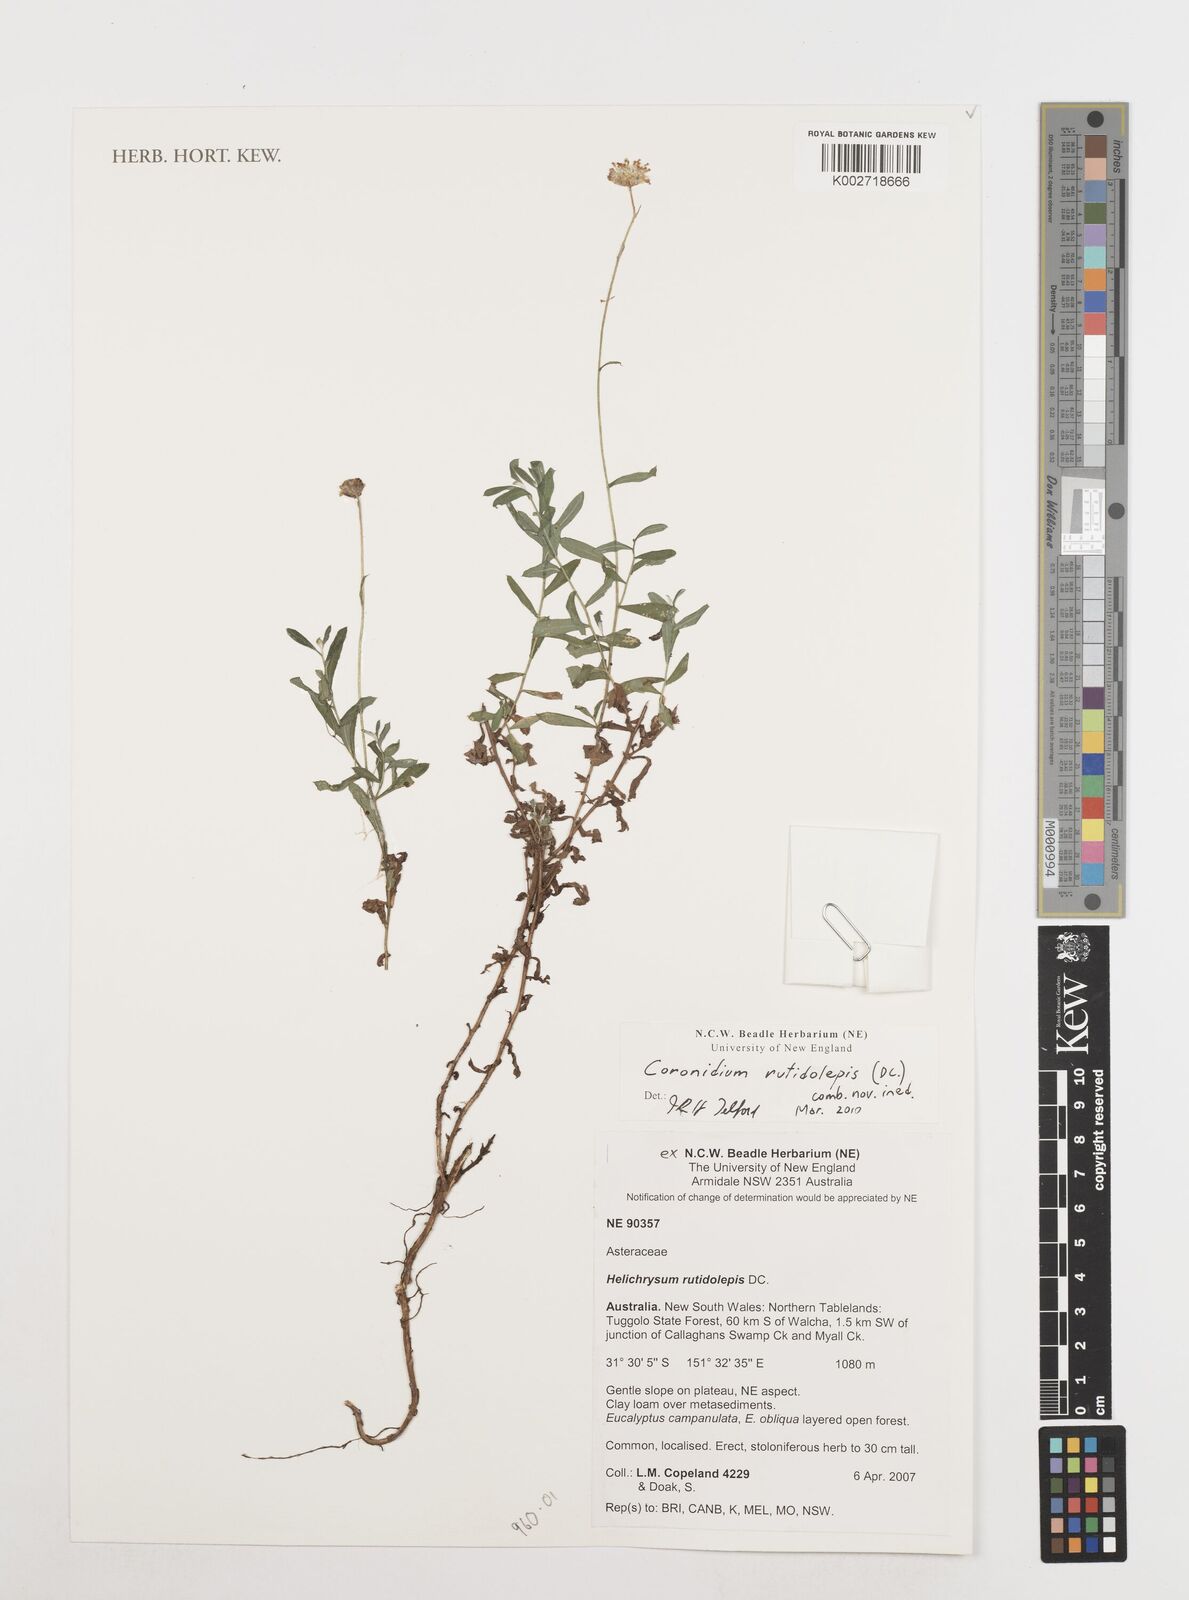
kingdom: Plantae
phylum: Tracheophyta
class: Magnoliopsida
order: Asterales
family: Asteraceae
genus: Coronidium
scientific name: Coronidium rutidolepis
